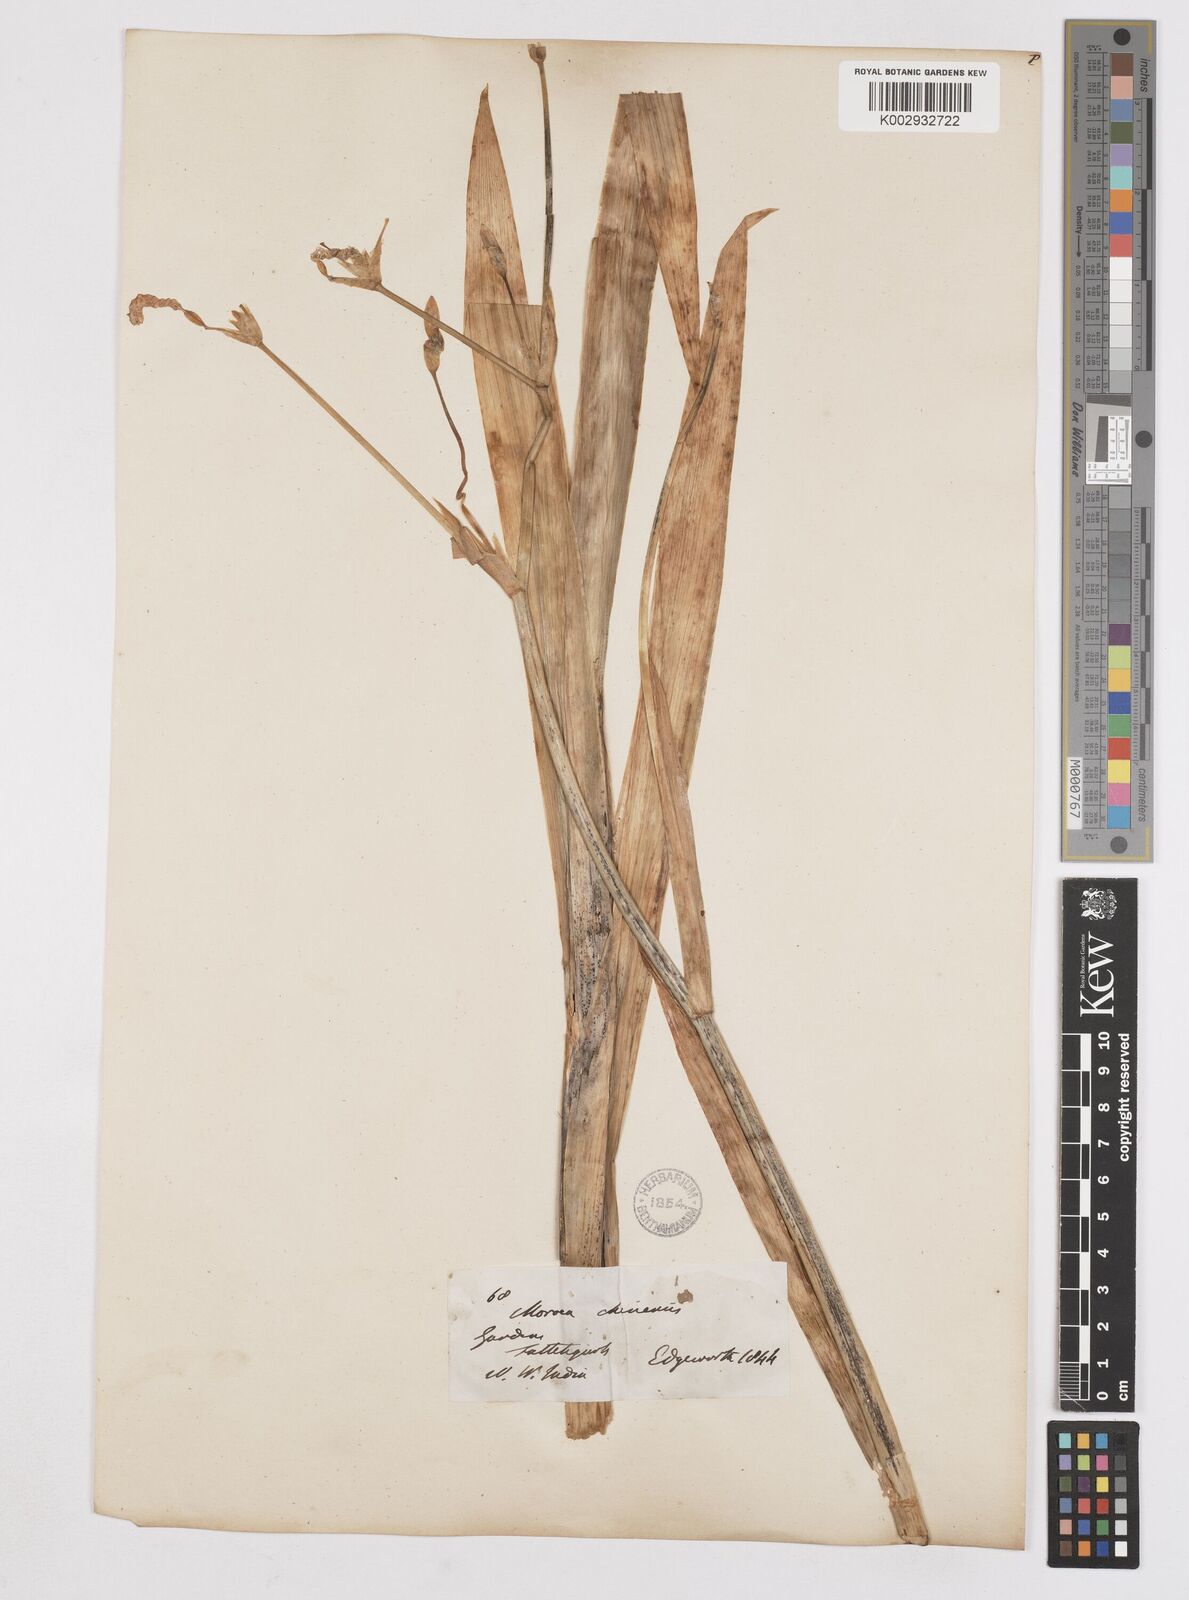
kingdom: Plantae
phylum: Tracheophyta
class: Liliopsida
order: Asparagales
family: Iridaceae
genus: Iris
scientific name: Iris
